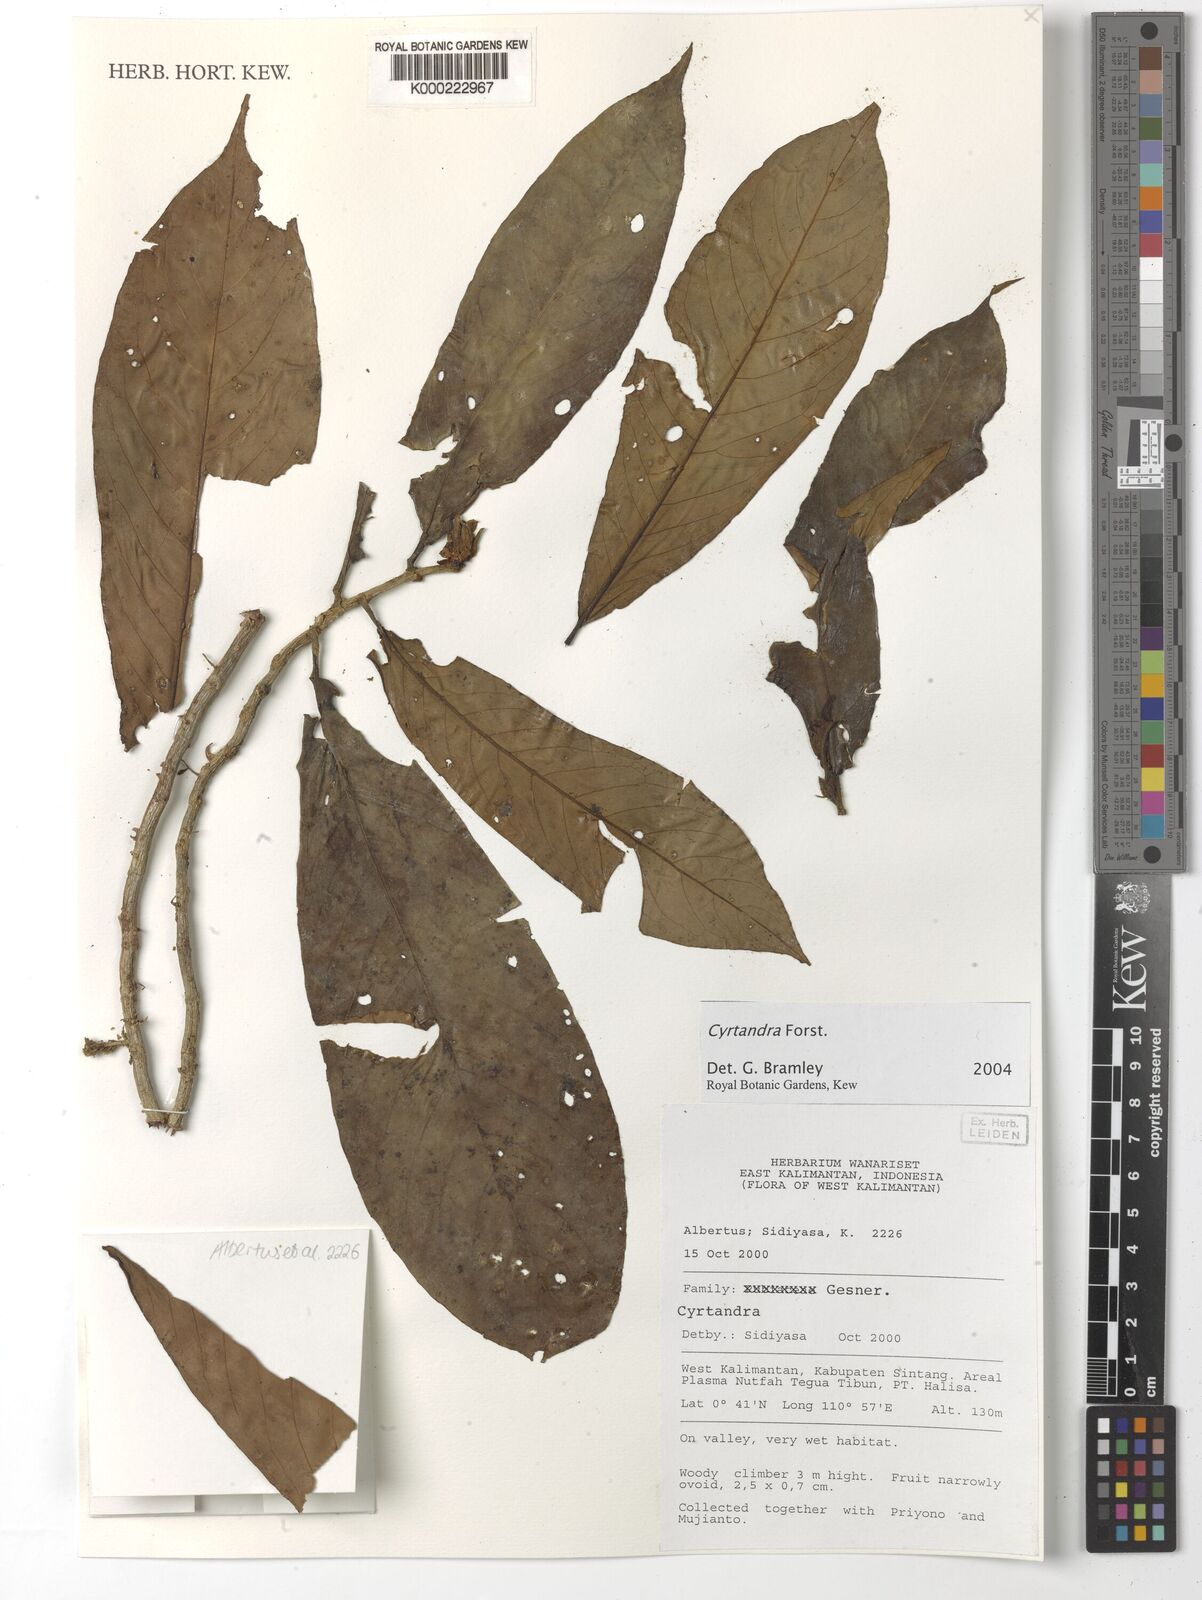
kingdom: Plantae
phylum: Tracheophyta
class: Magnoliopsida
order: Lamiales
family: Gesneriaceae
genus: Cyrtandra
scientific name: Cyrtandra
